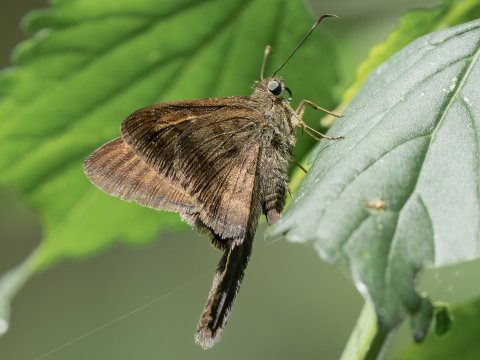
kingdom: Animalia
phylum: Arthropoda
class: Insecta
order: Lepidoptera
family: Hesperiidae
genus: Urbanus
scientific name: Urbanus simplicius
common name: Plain Longtail
